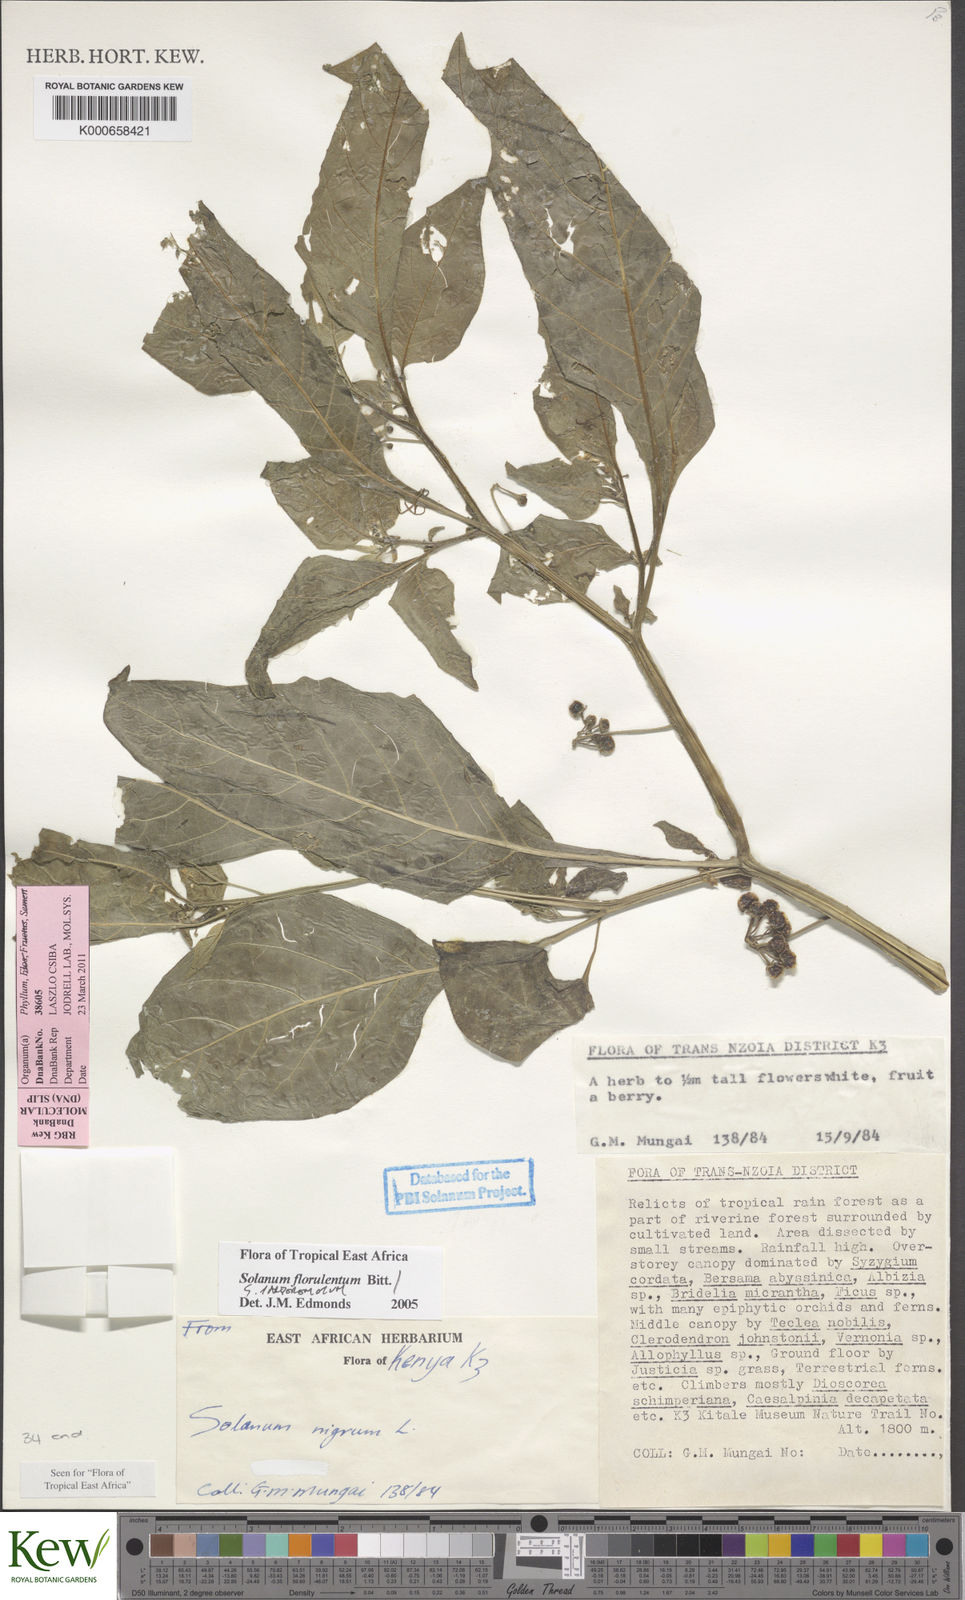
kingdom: Plantae
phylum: Tracheophyta
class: Magnoliopsida
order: Solanales
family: Solanaceae
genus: Solanum
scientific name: Solanum grandidentatum
